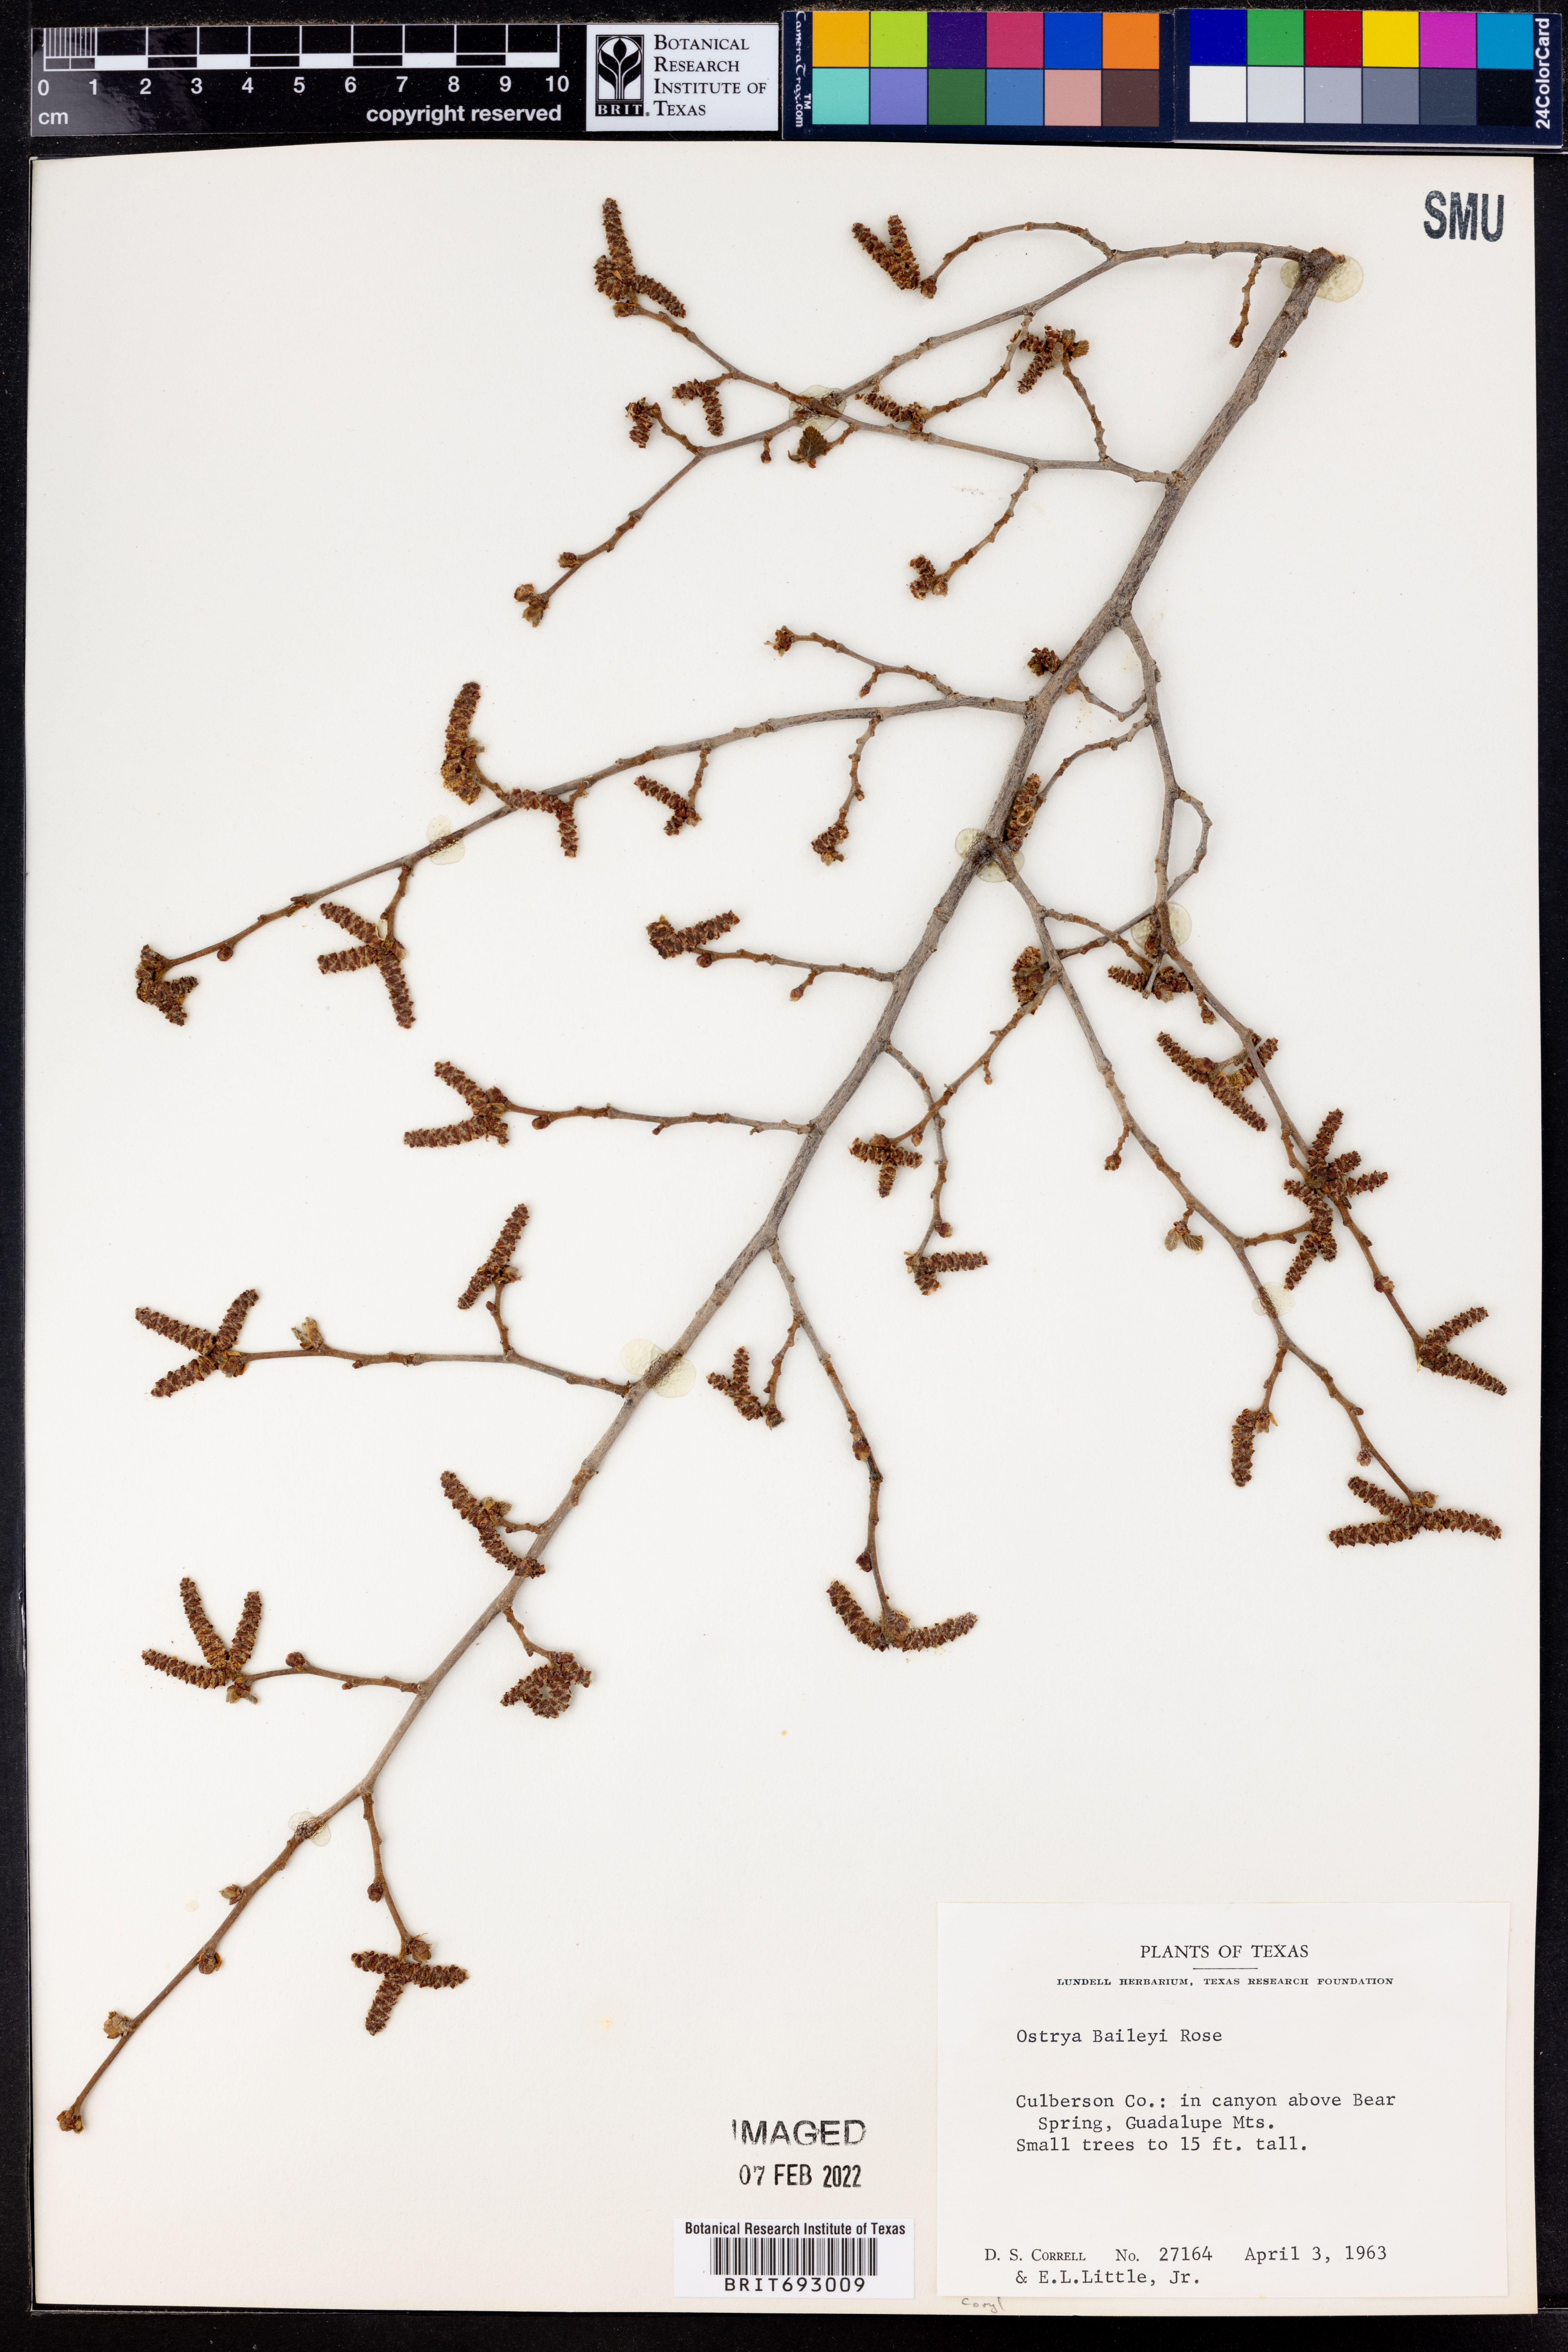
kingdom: Plantae
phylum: Tracheophyta
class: Magnoliopsida
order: Fagales
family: Betulaceae
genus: Ostrya
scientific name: Ostrya virginiana
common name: Ironwood
